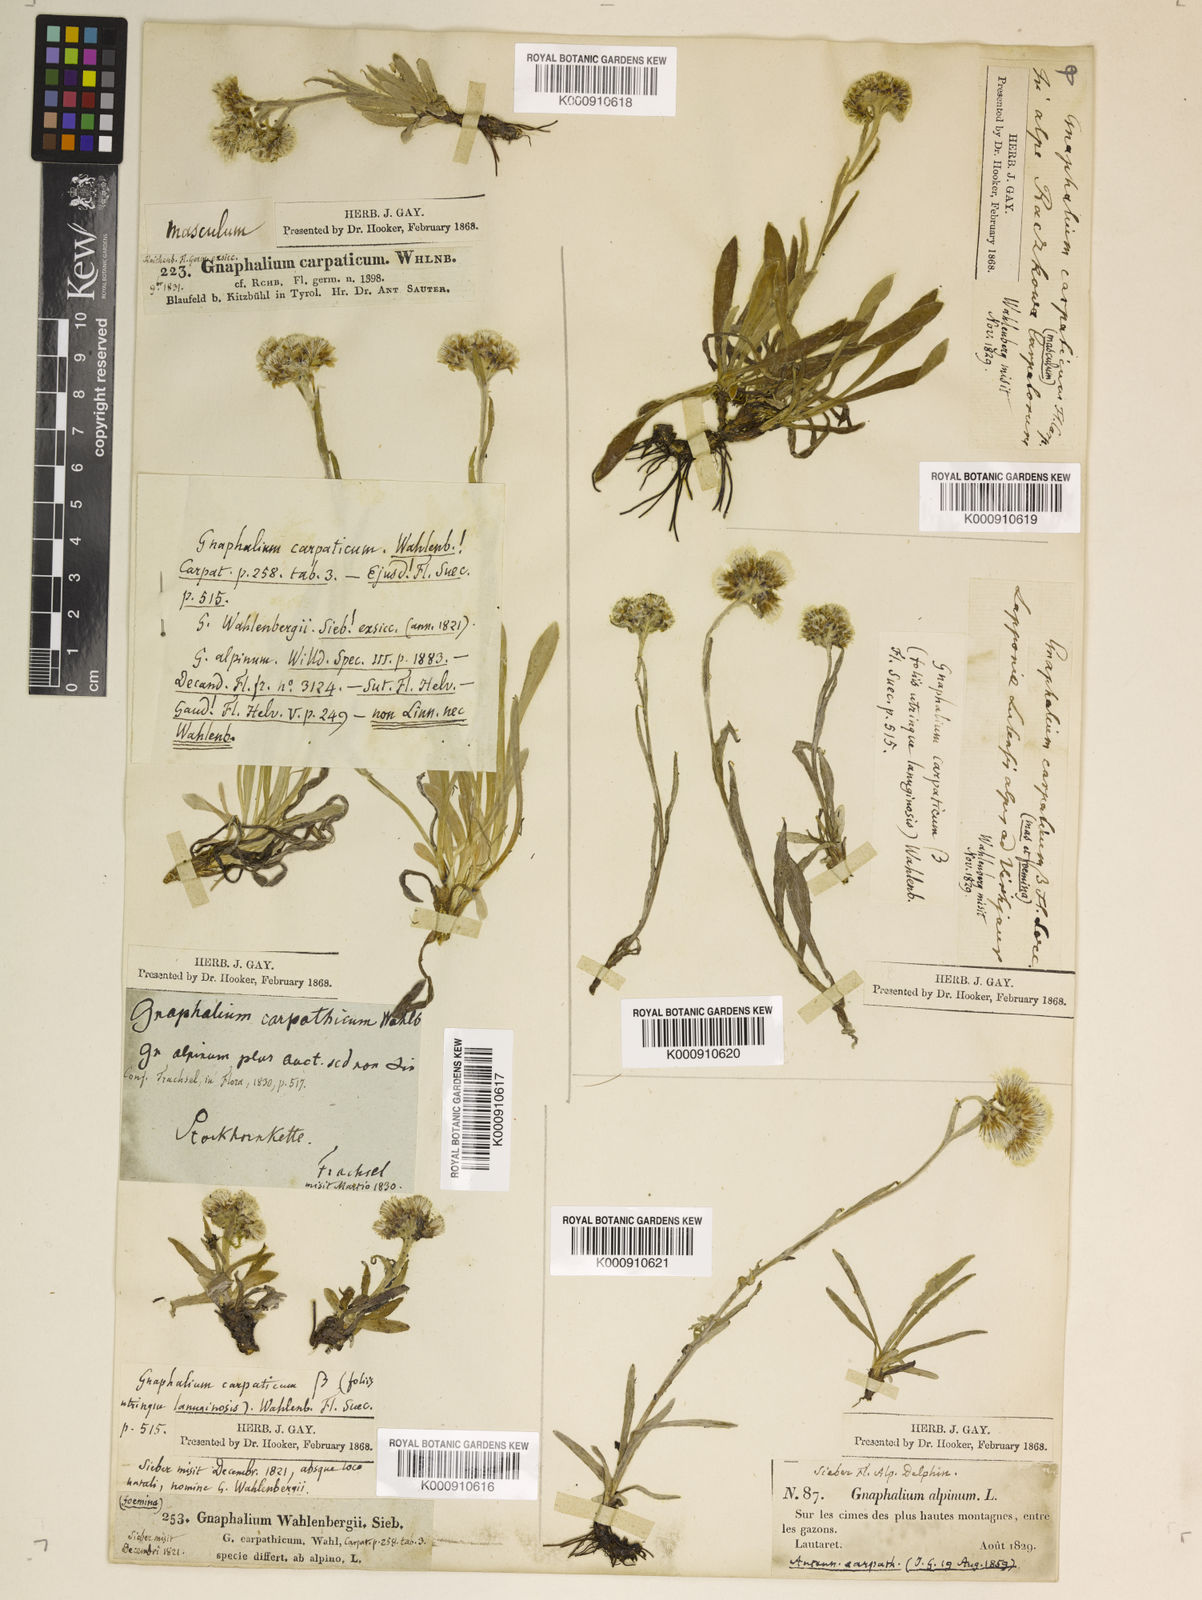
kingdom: Plantae
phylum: Tracheophyta
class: Magnoliopsida
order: Asterales
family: Asteraceae
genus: Antennaria
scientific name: Antennaria
